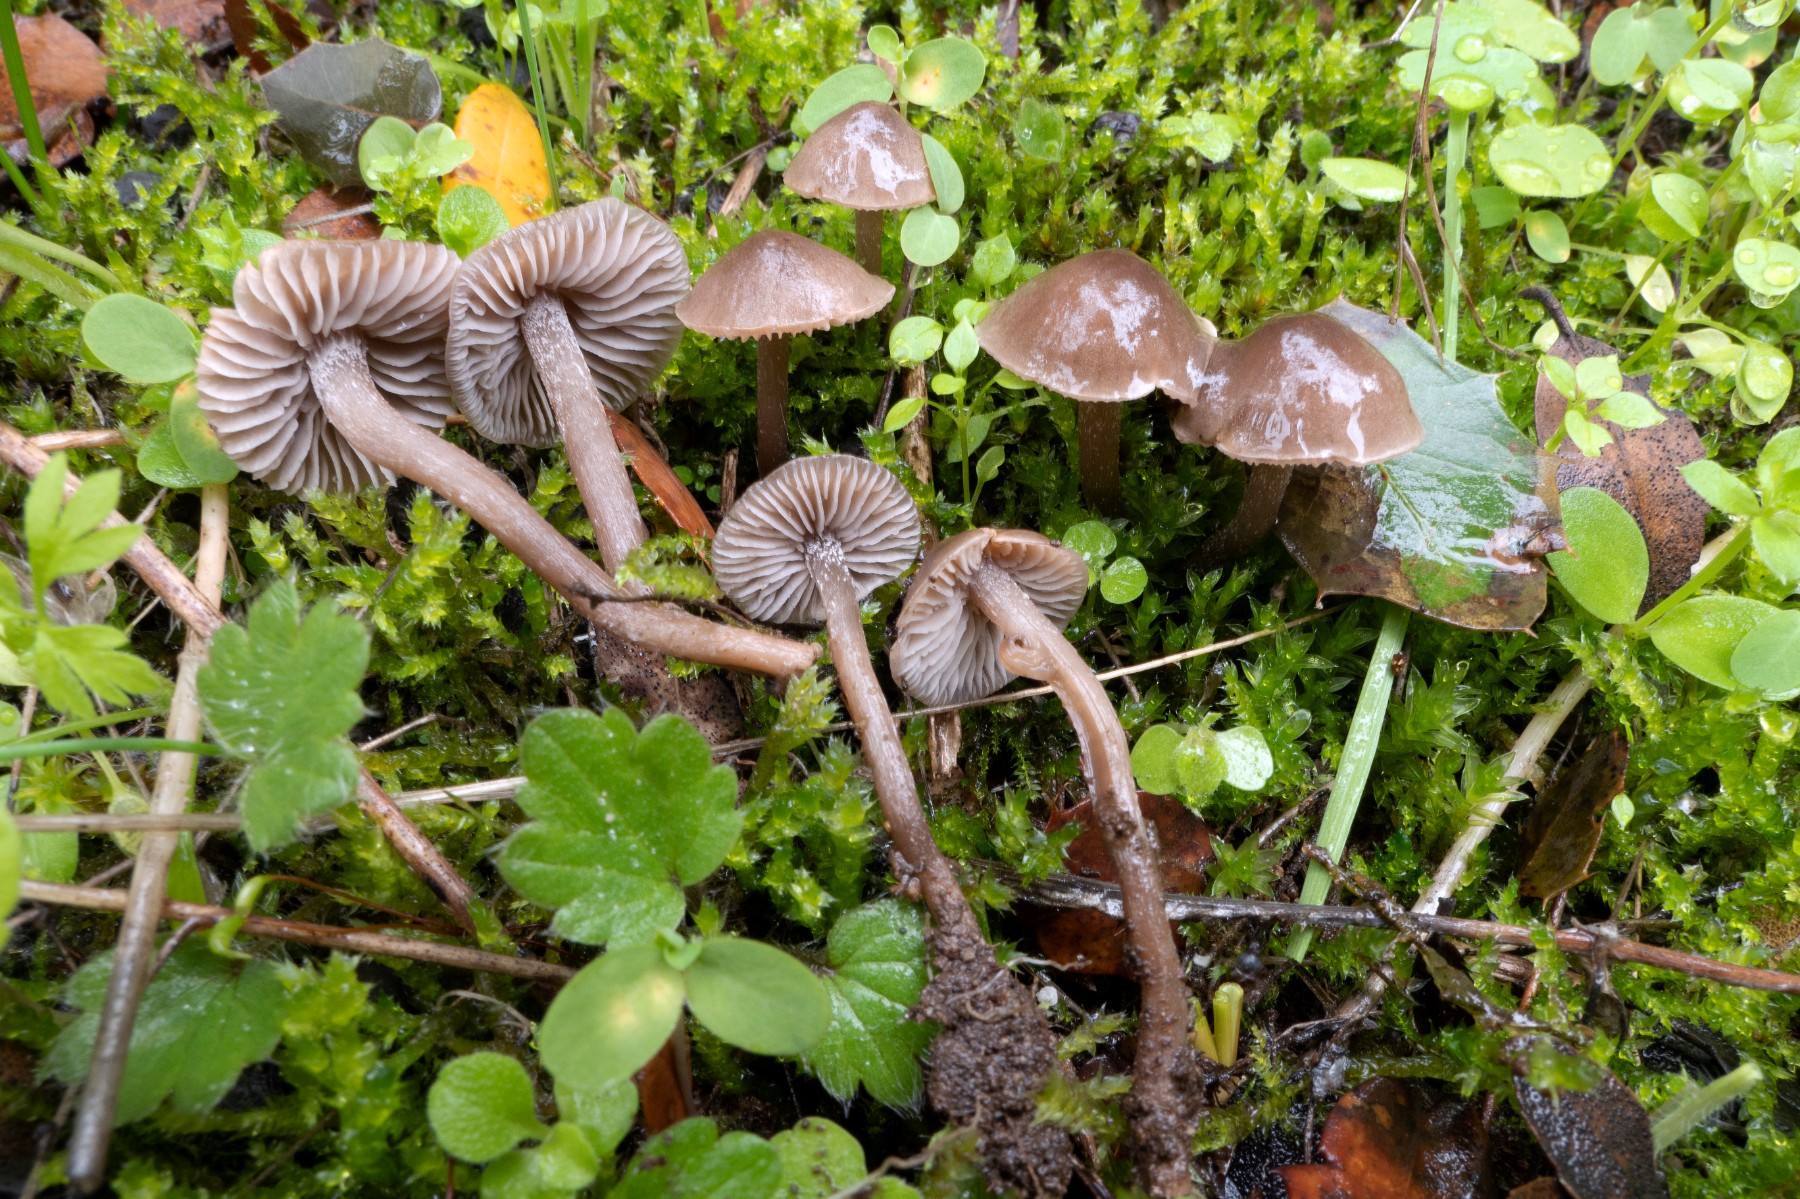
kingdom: Fungi
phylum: Basidiomycota
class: Agaricomycetes
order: Agaricales
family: Tricholomataceae
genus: Dermoloma
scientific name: Dermoloma josserandii
